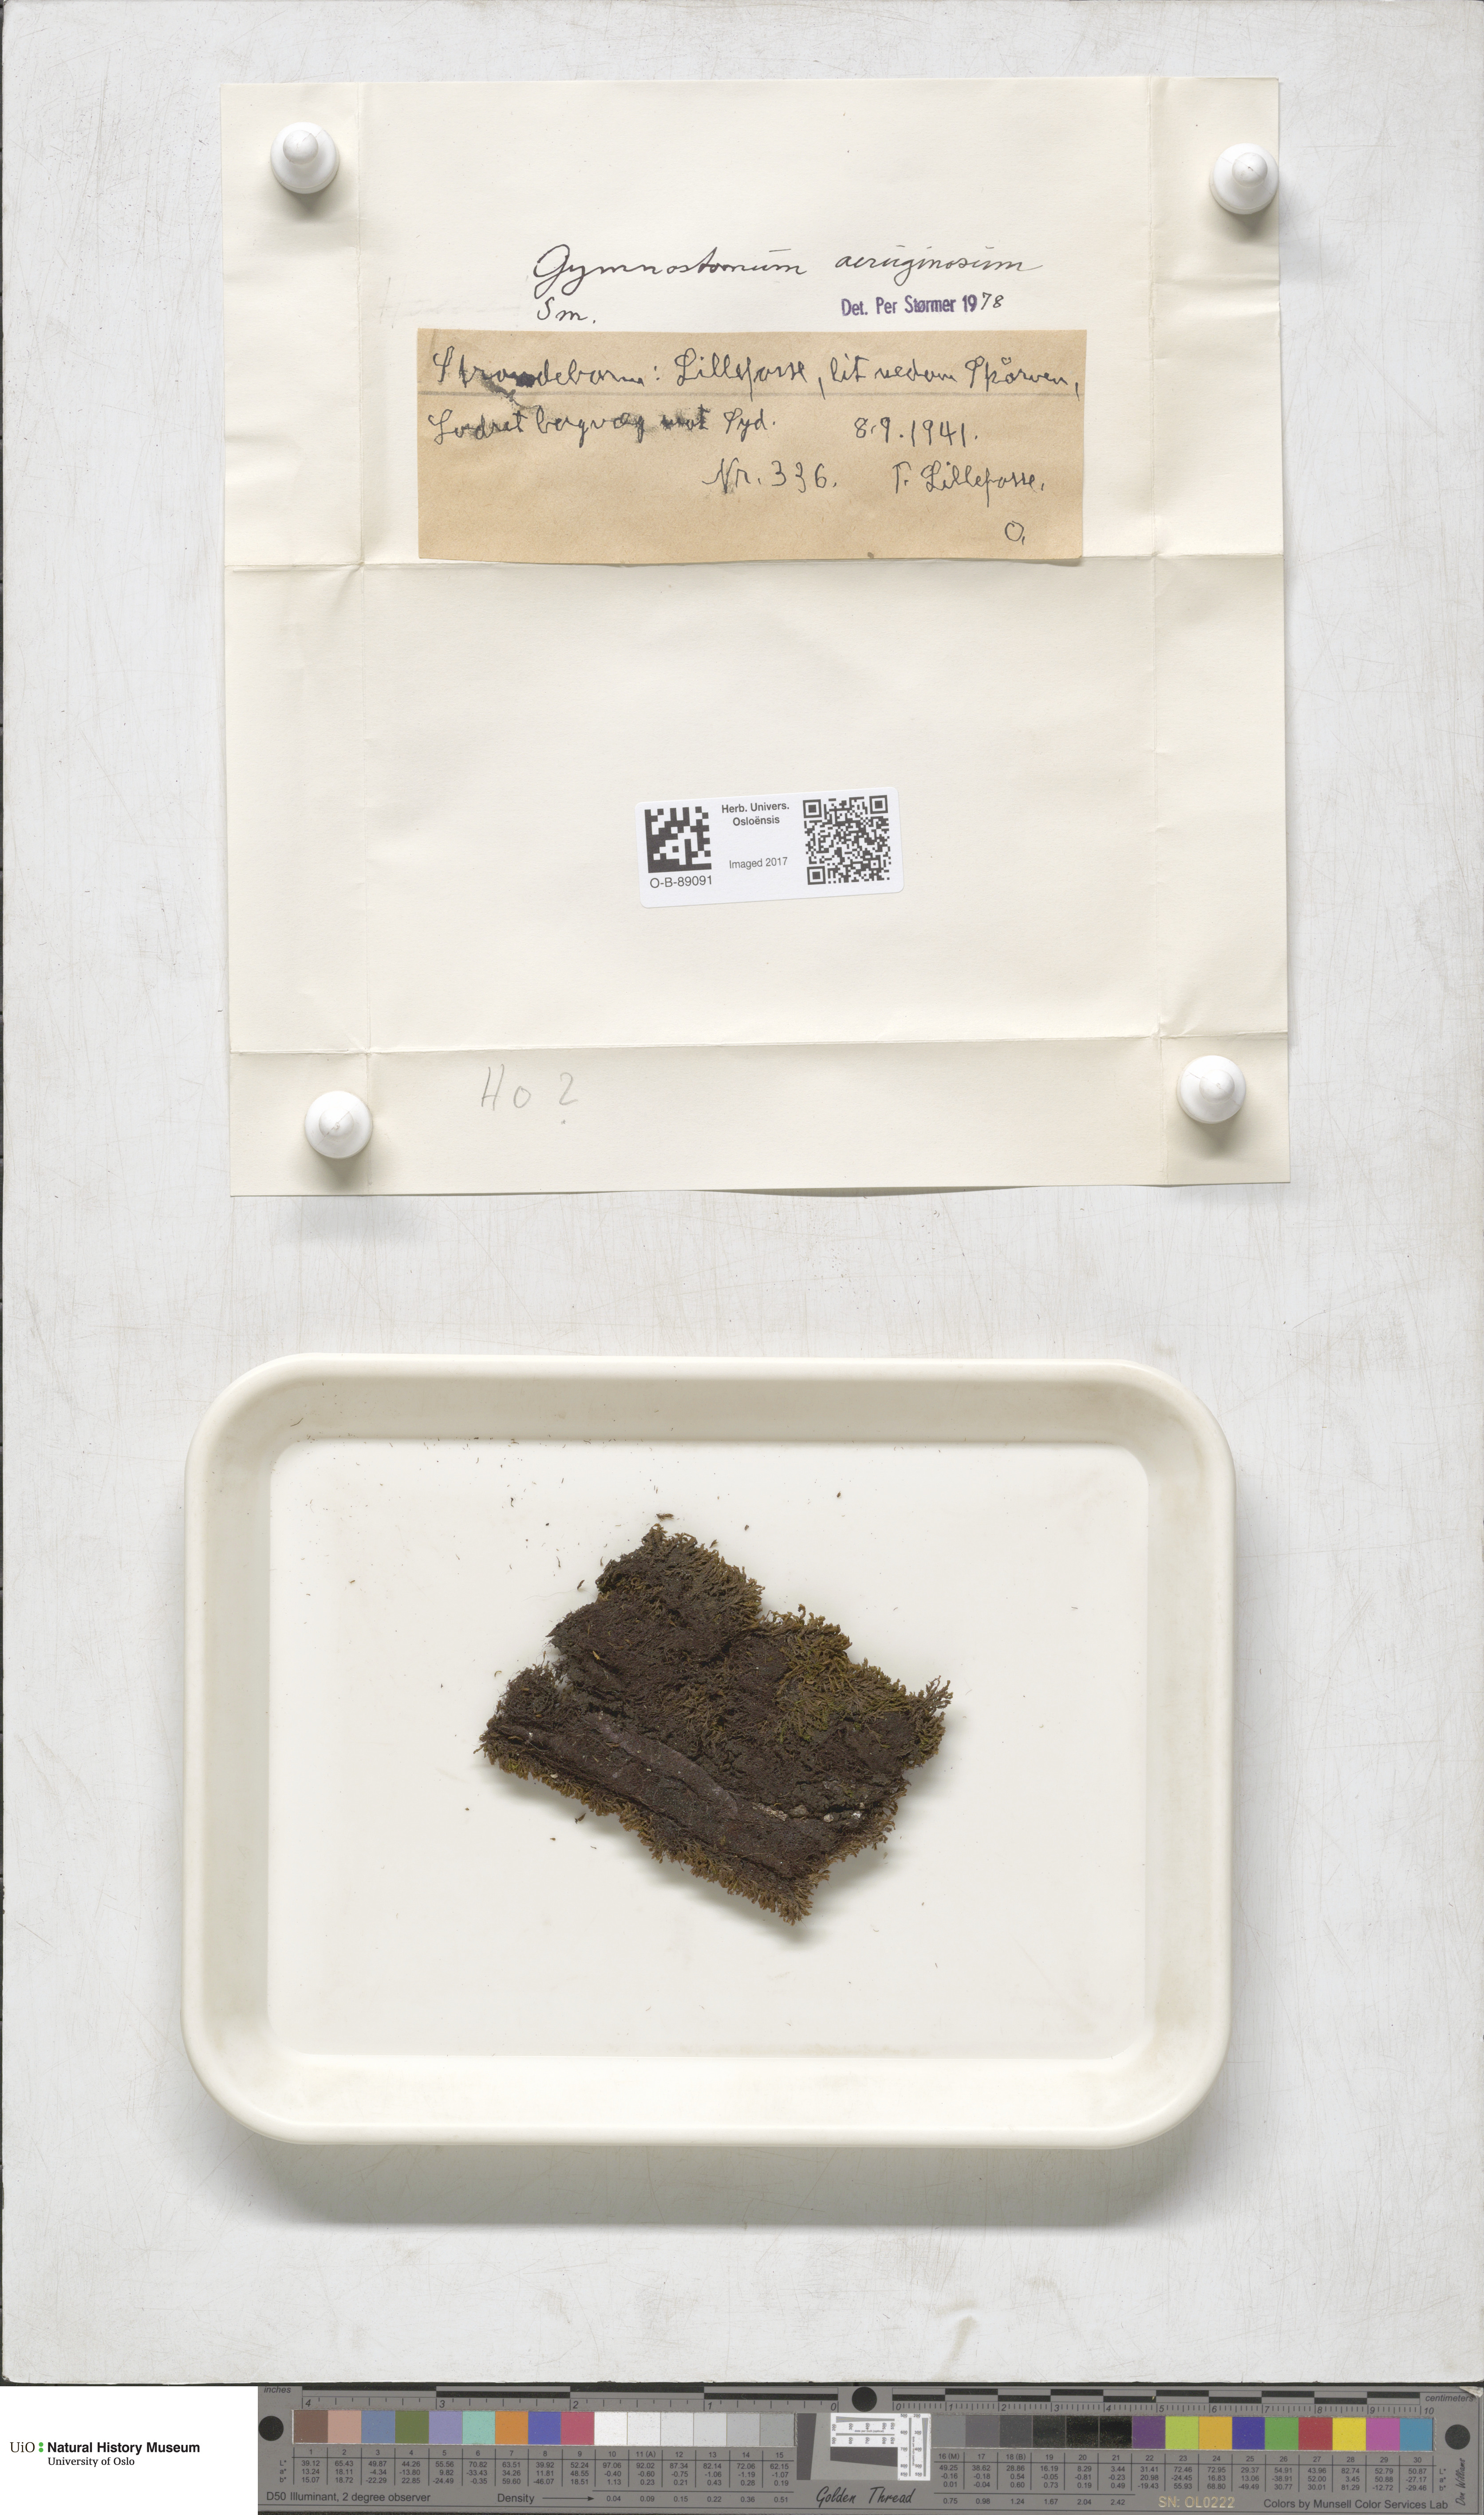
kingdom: Plantae
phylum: Bryophyta
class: Bryopsida
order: Pottiales
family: Pottiaceae
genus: Gymnostomum
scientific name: Gymnostomum aeruginosum
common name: Verdigris tufa-moss
